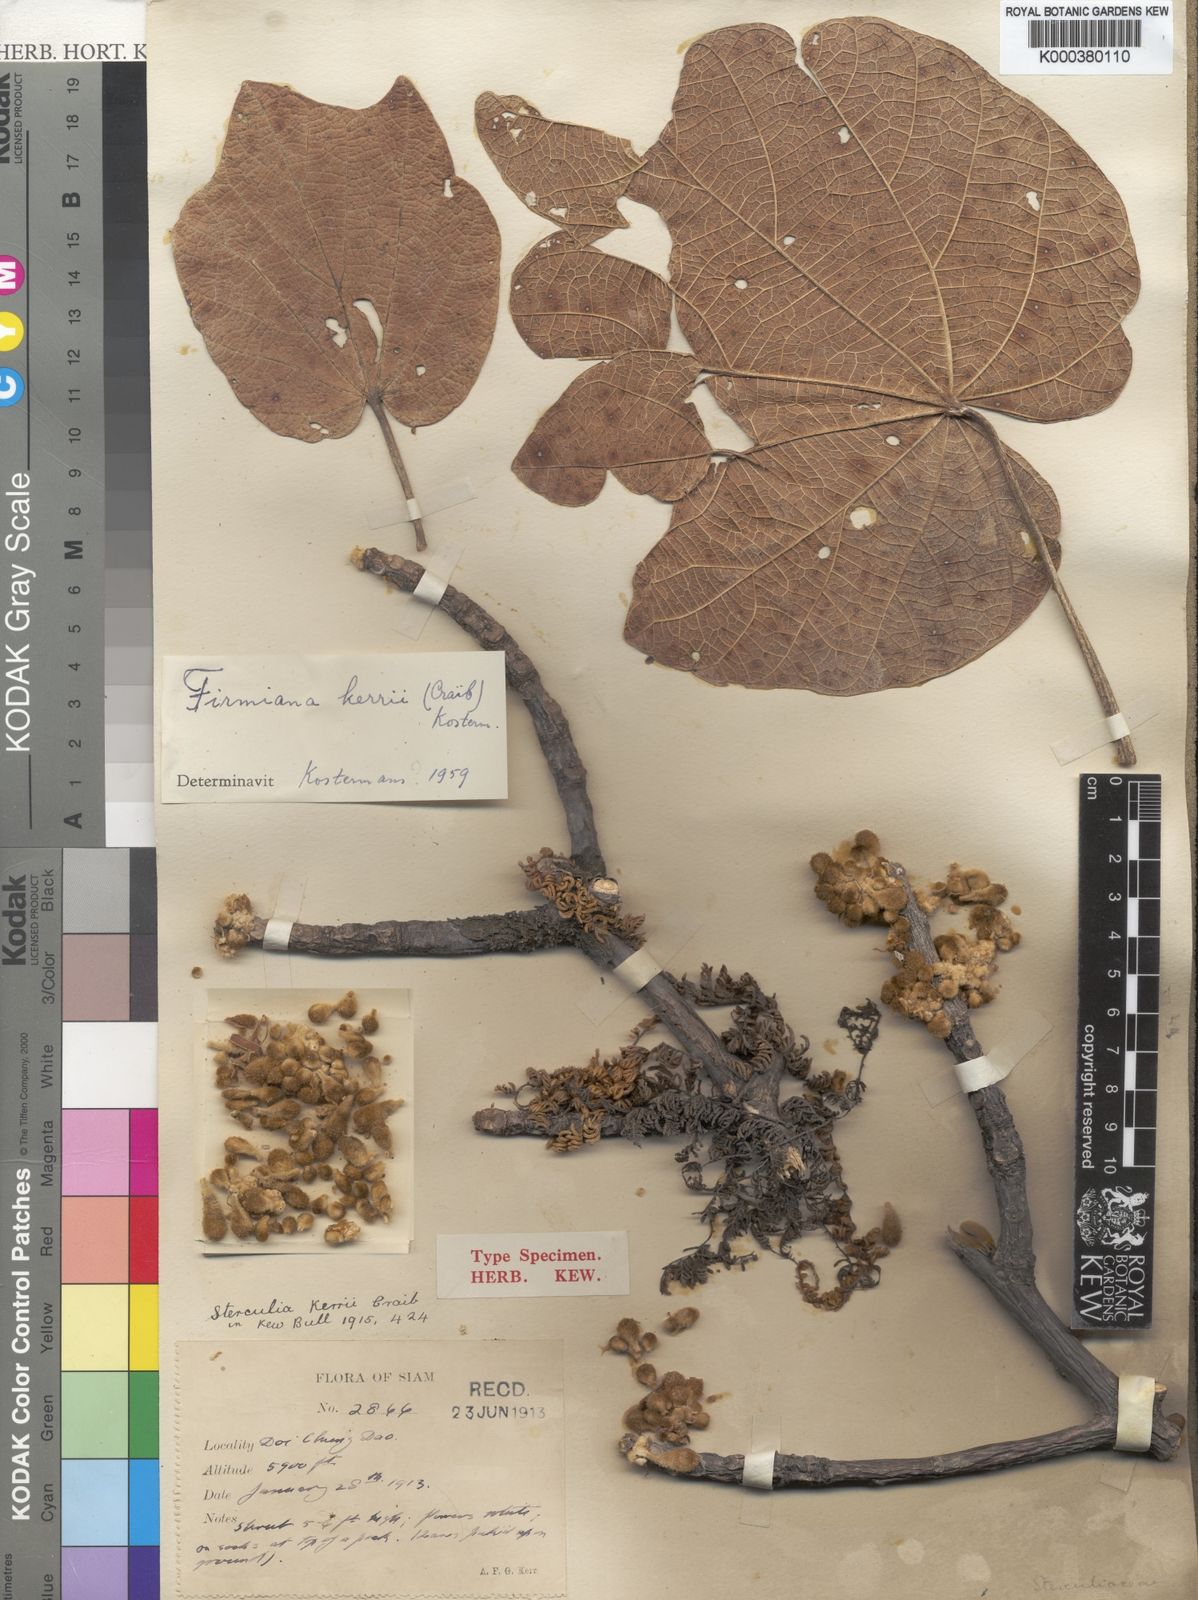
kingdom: Plantae
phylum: Tracheophyta
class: Magnoliopsida
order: Malvales
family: Malvaceae
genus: Firmiana
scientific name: Firmiana kerrii
